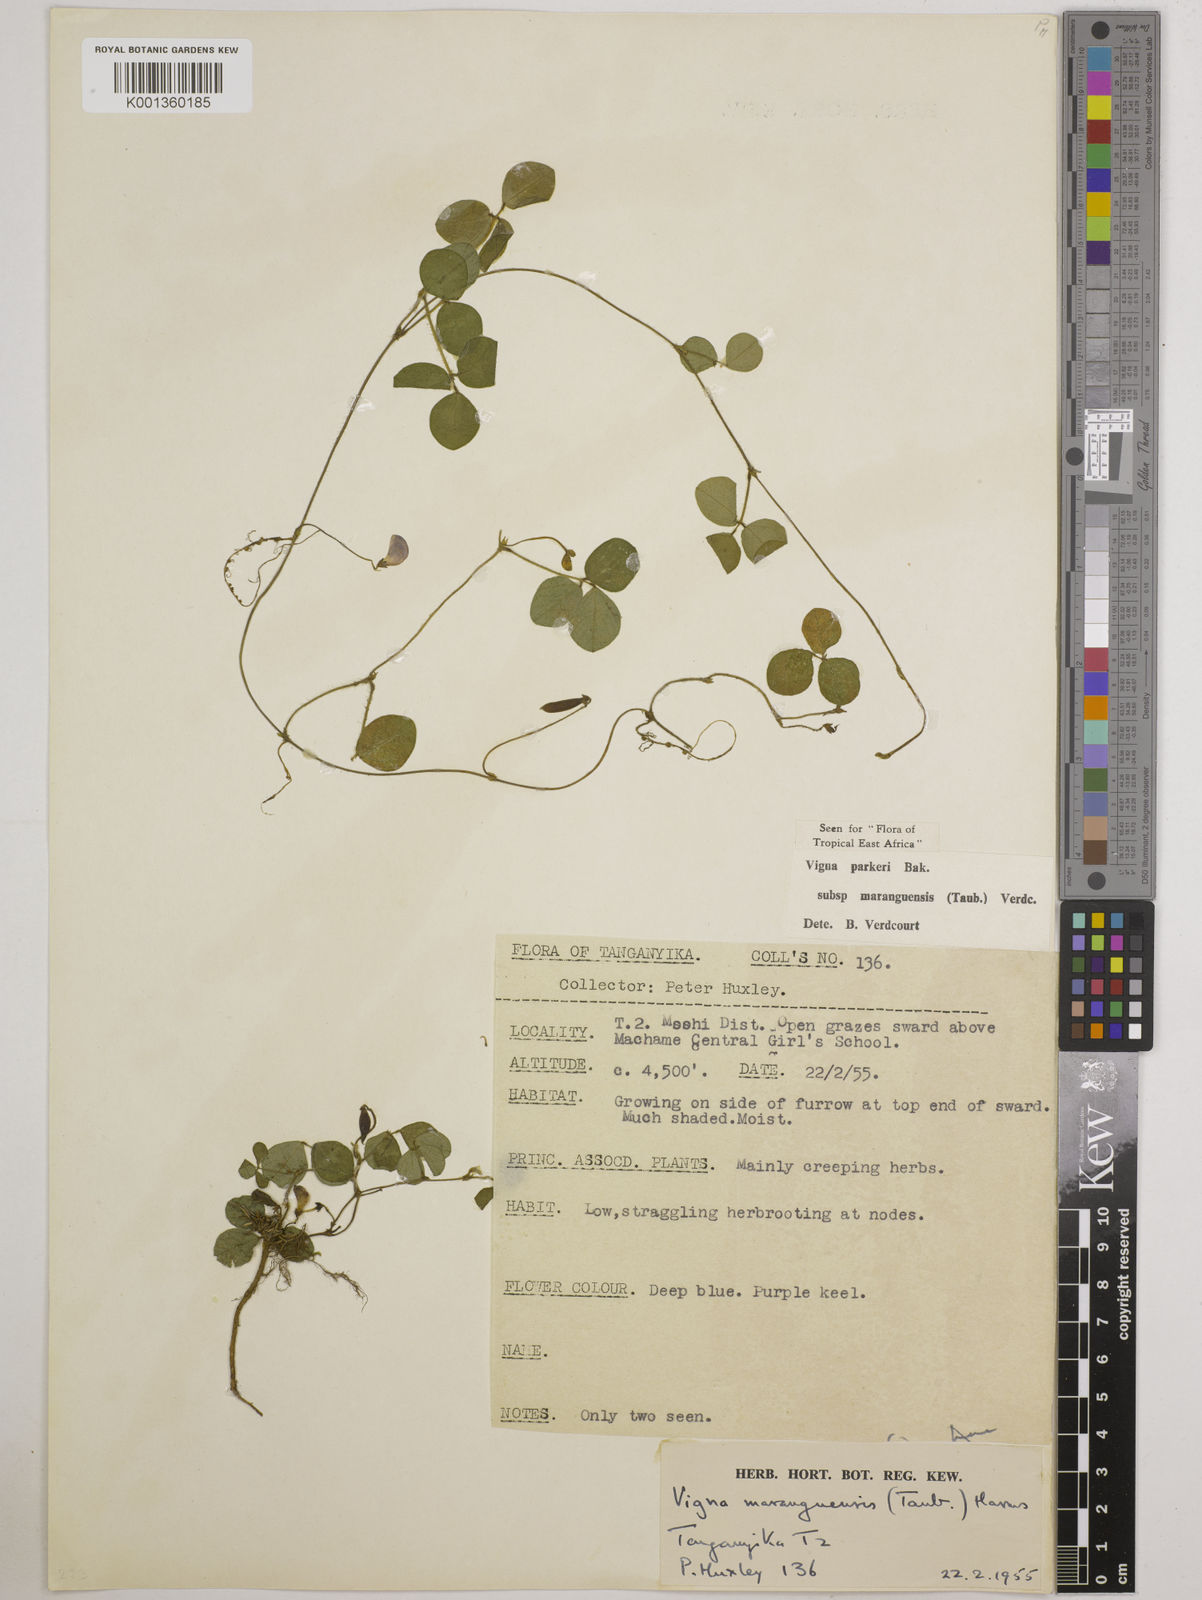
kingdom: Plantae
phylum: Tracheophyta
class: Magnoliopsida
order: Fabales
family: Fabaceae
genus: Vigna
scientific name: Vigna
